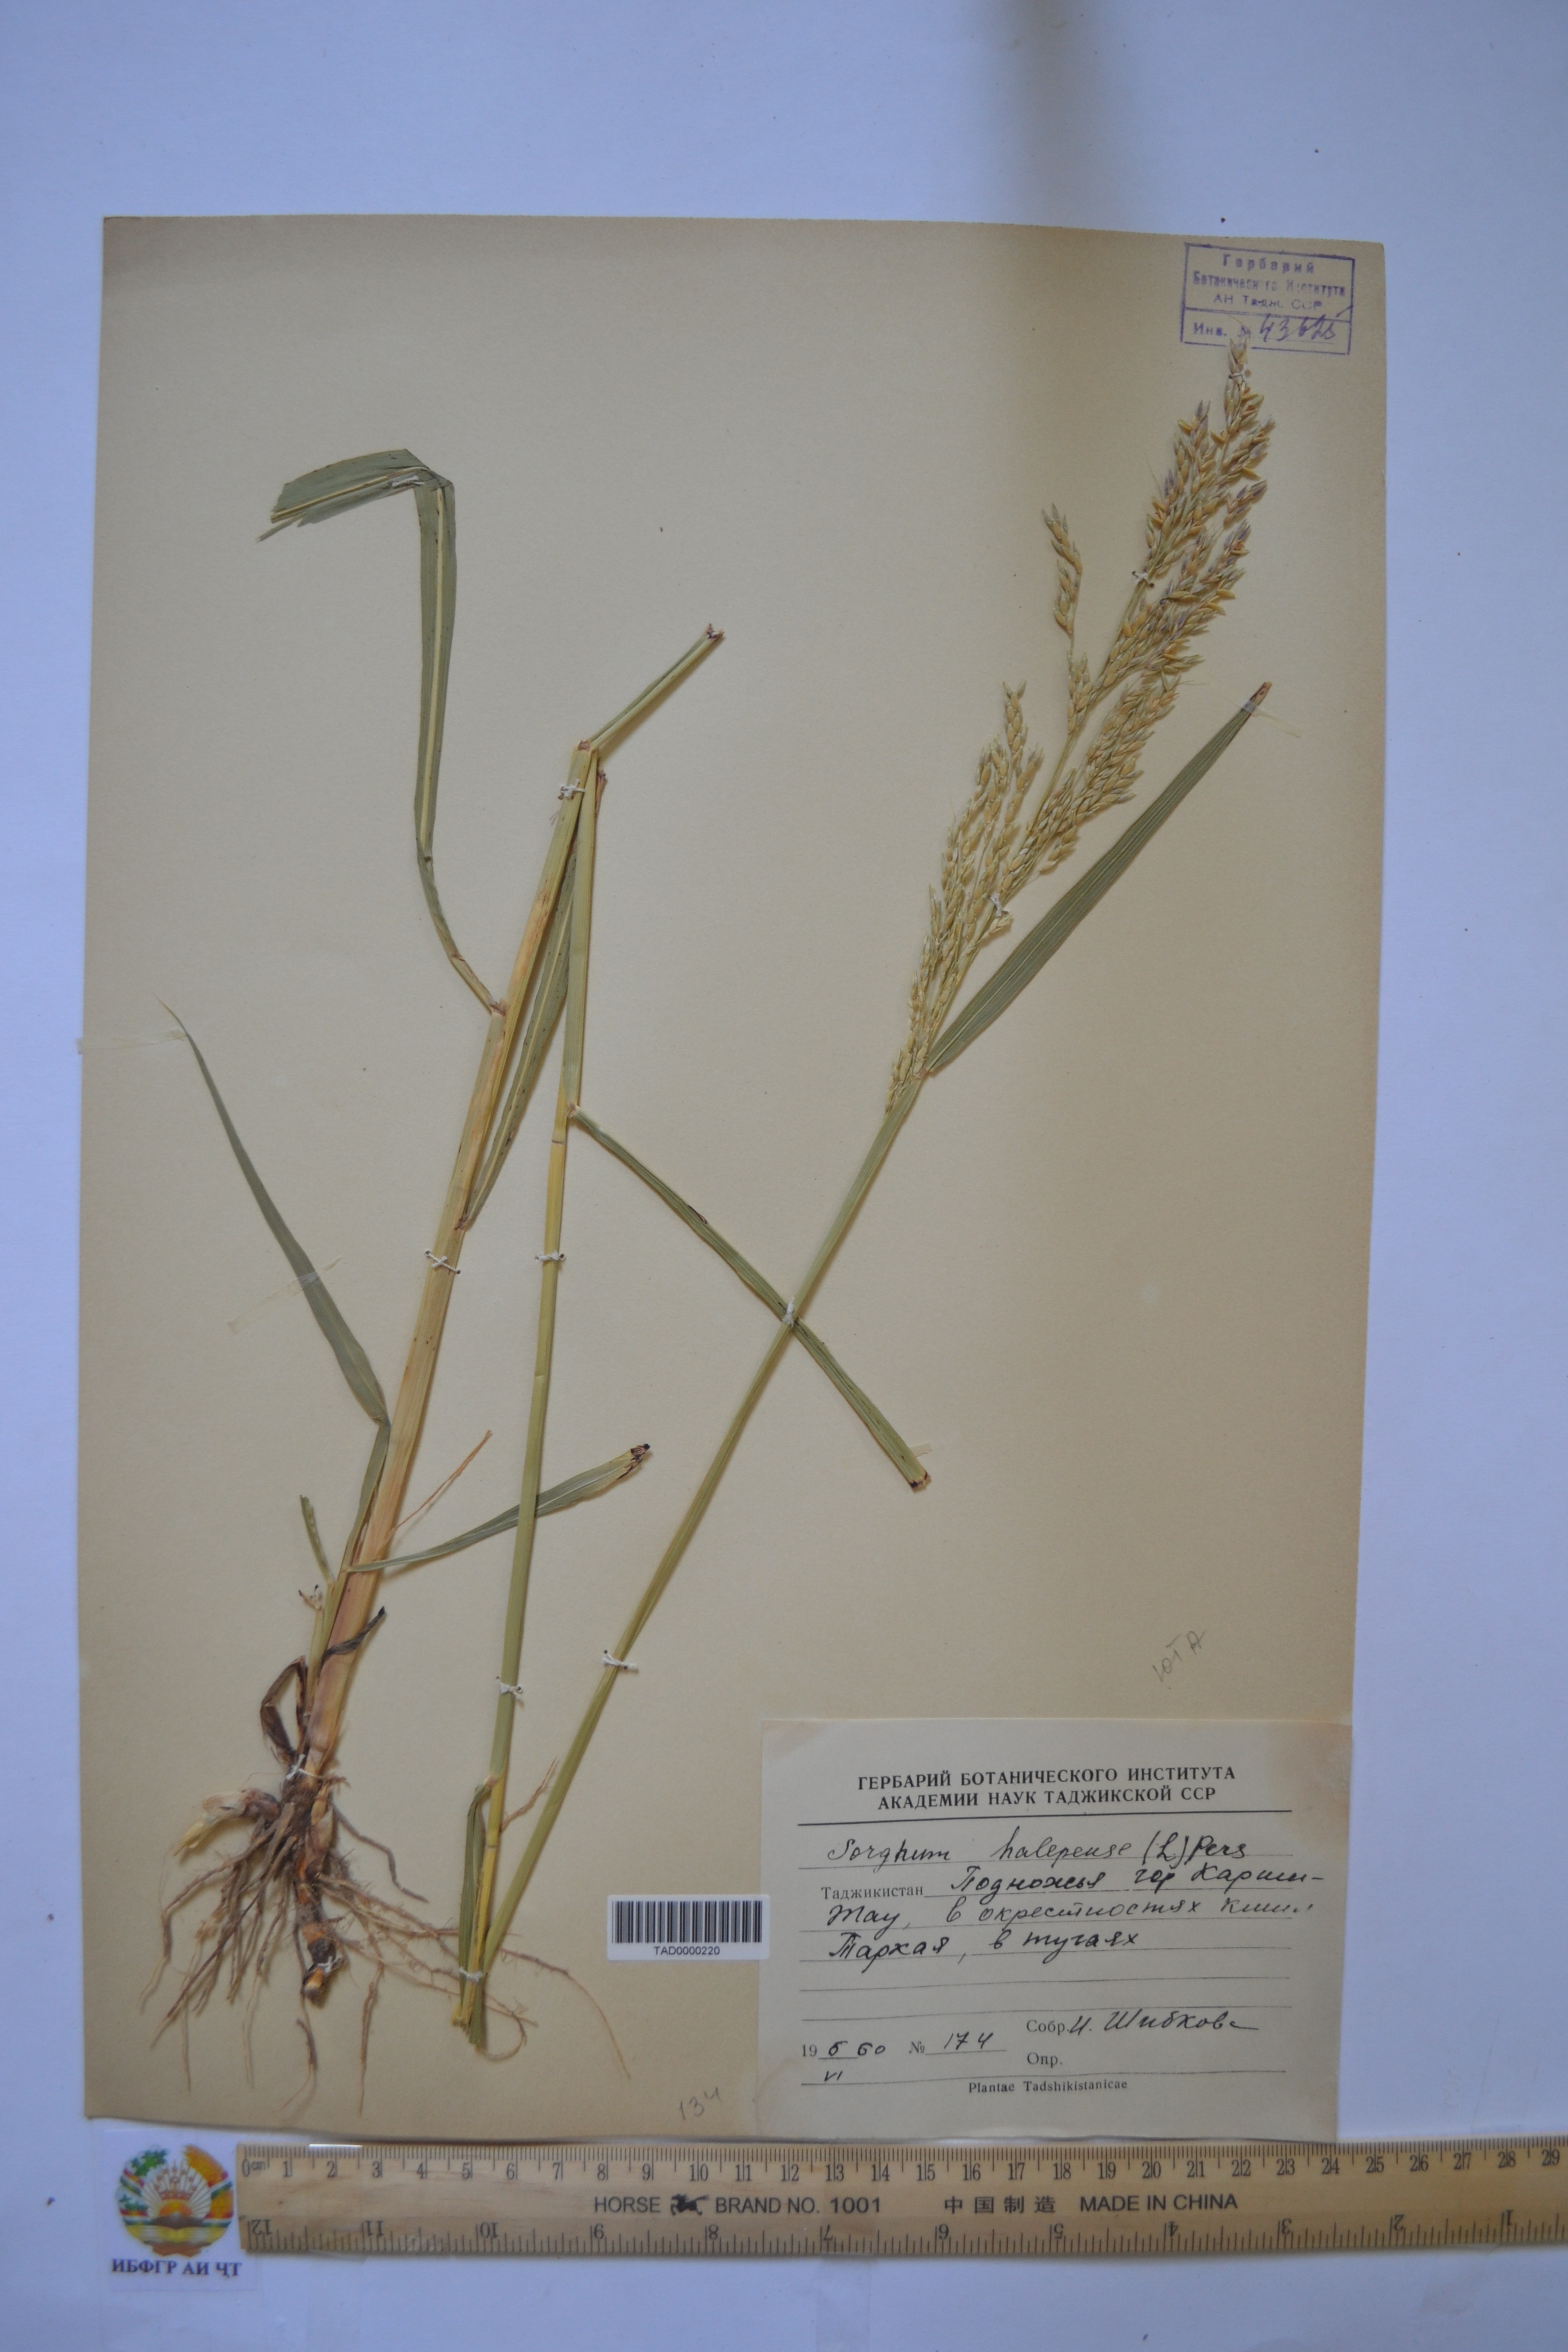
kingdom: Plantae
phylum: Tracheophyta
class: Liliopsida
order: Poales
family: Poaceae
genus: Sorghum
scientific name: Sorghum halepense
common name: Johnson-grass
